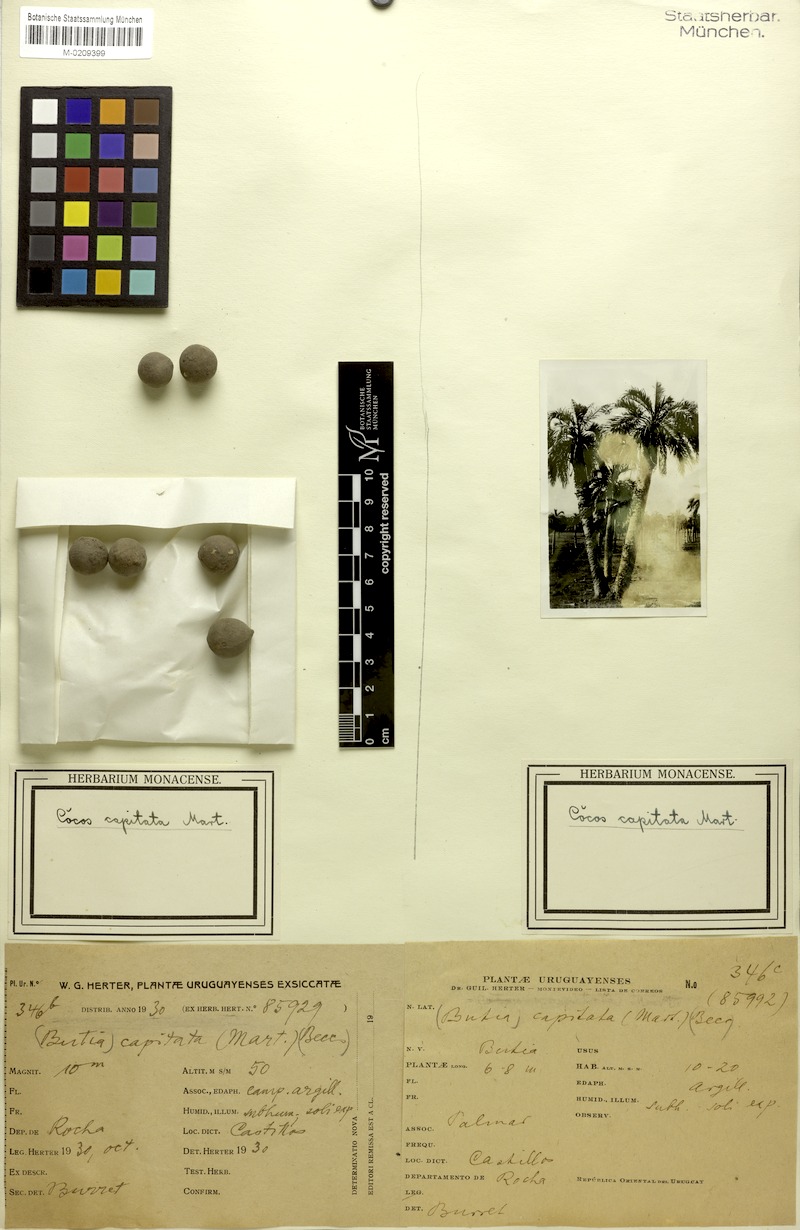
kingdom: Plantae
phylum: Tracheophyta
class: Liliopsida
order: Arecales
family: Arecaceae
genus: Butia
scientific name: Butia capitata
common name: South american jelly palm
